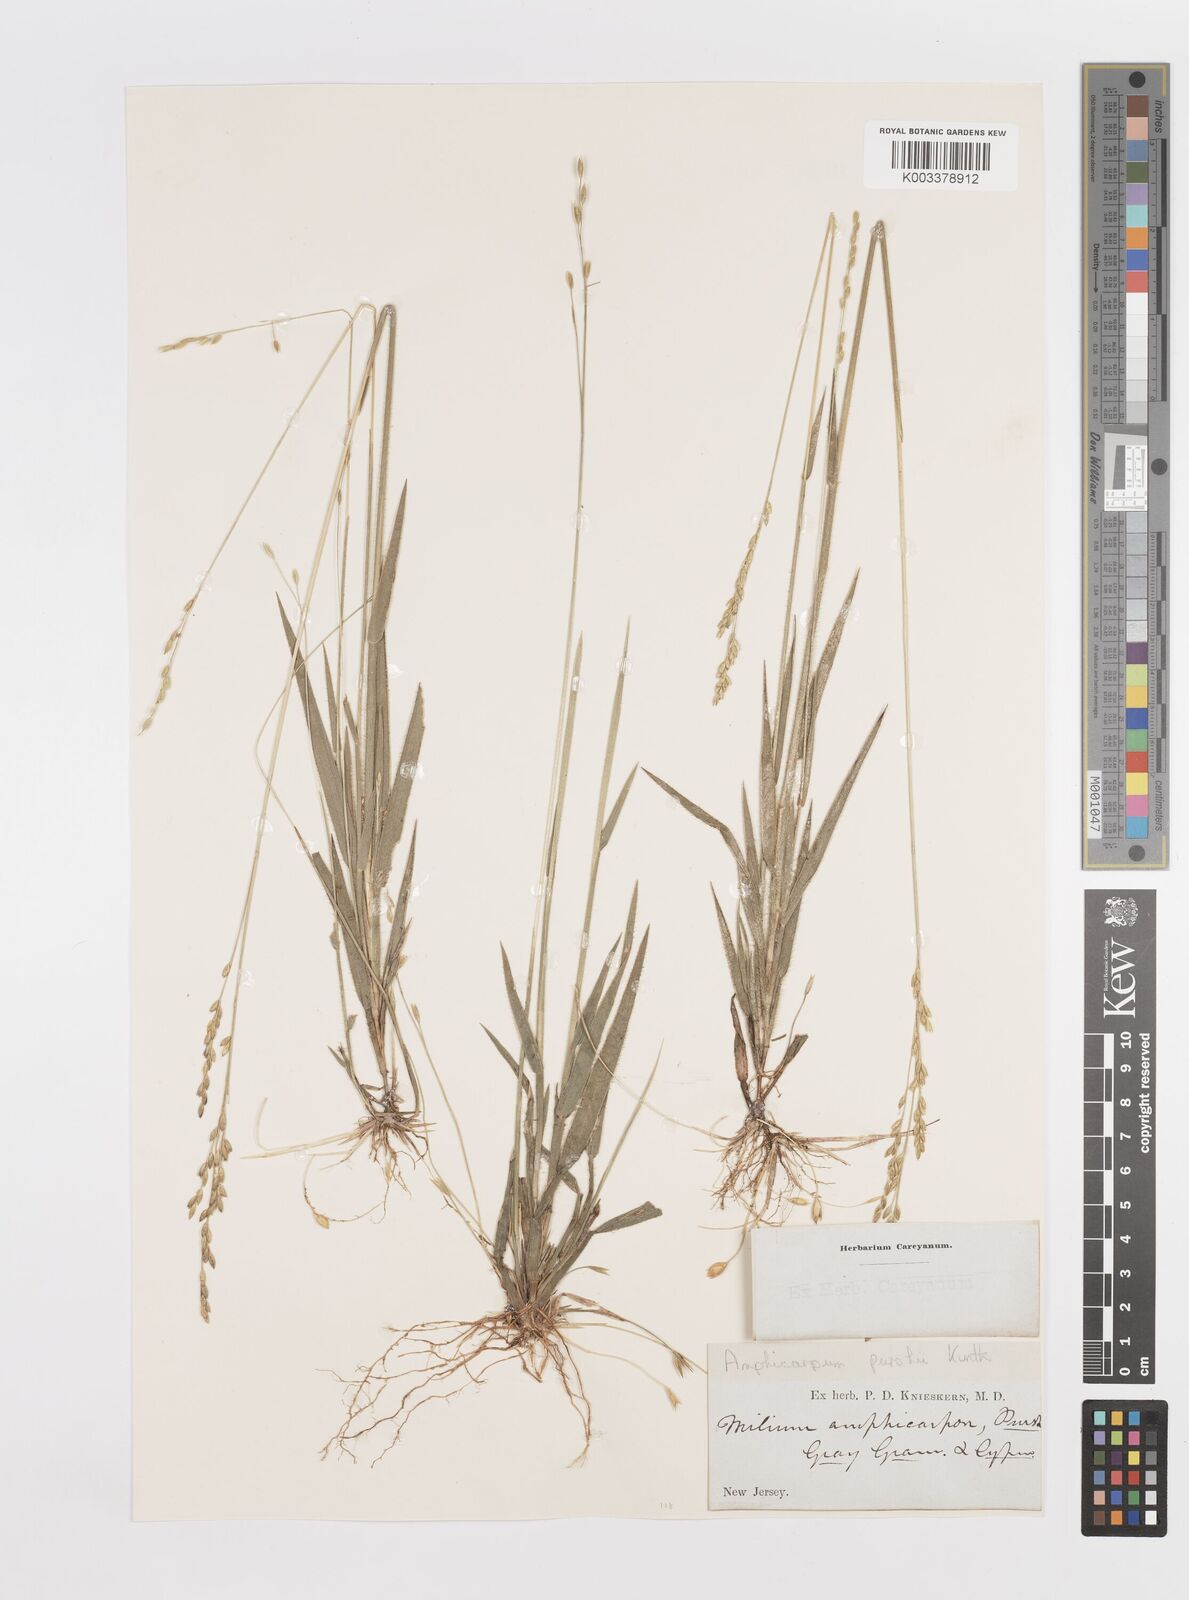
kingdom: Plantae
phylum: Tracheophyta
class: Liliopsida
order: Poales
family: Poaceae
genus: Amphicarpum
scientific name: Amphicarpum
